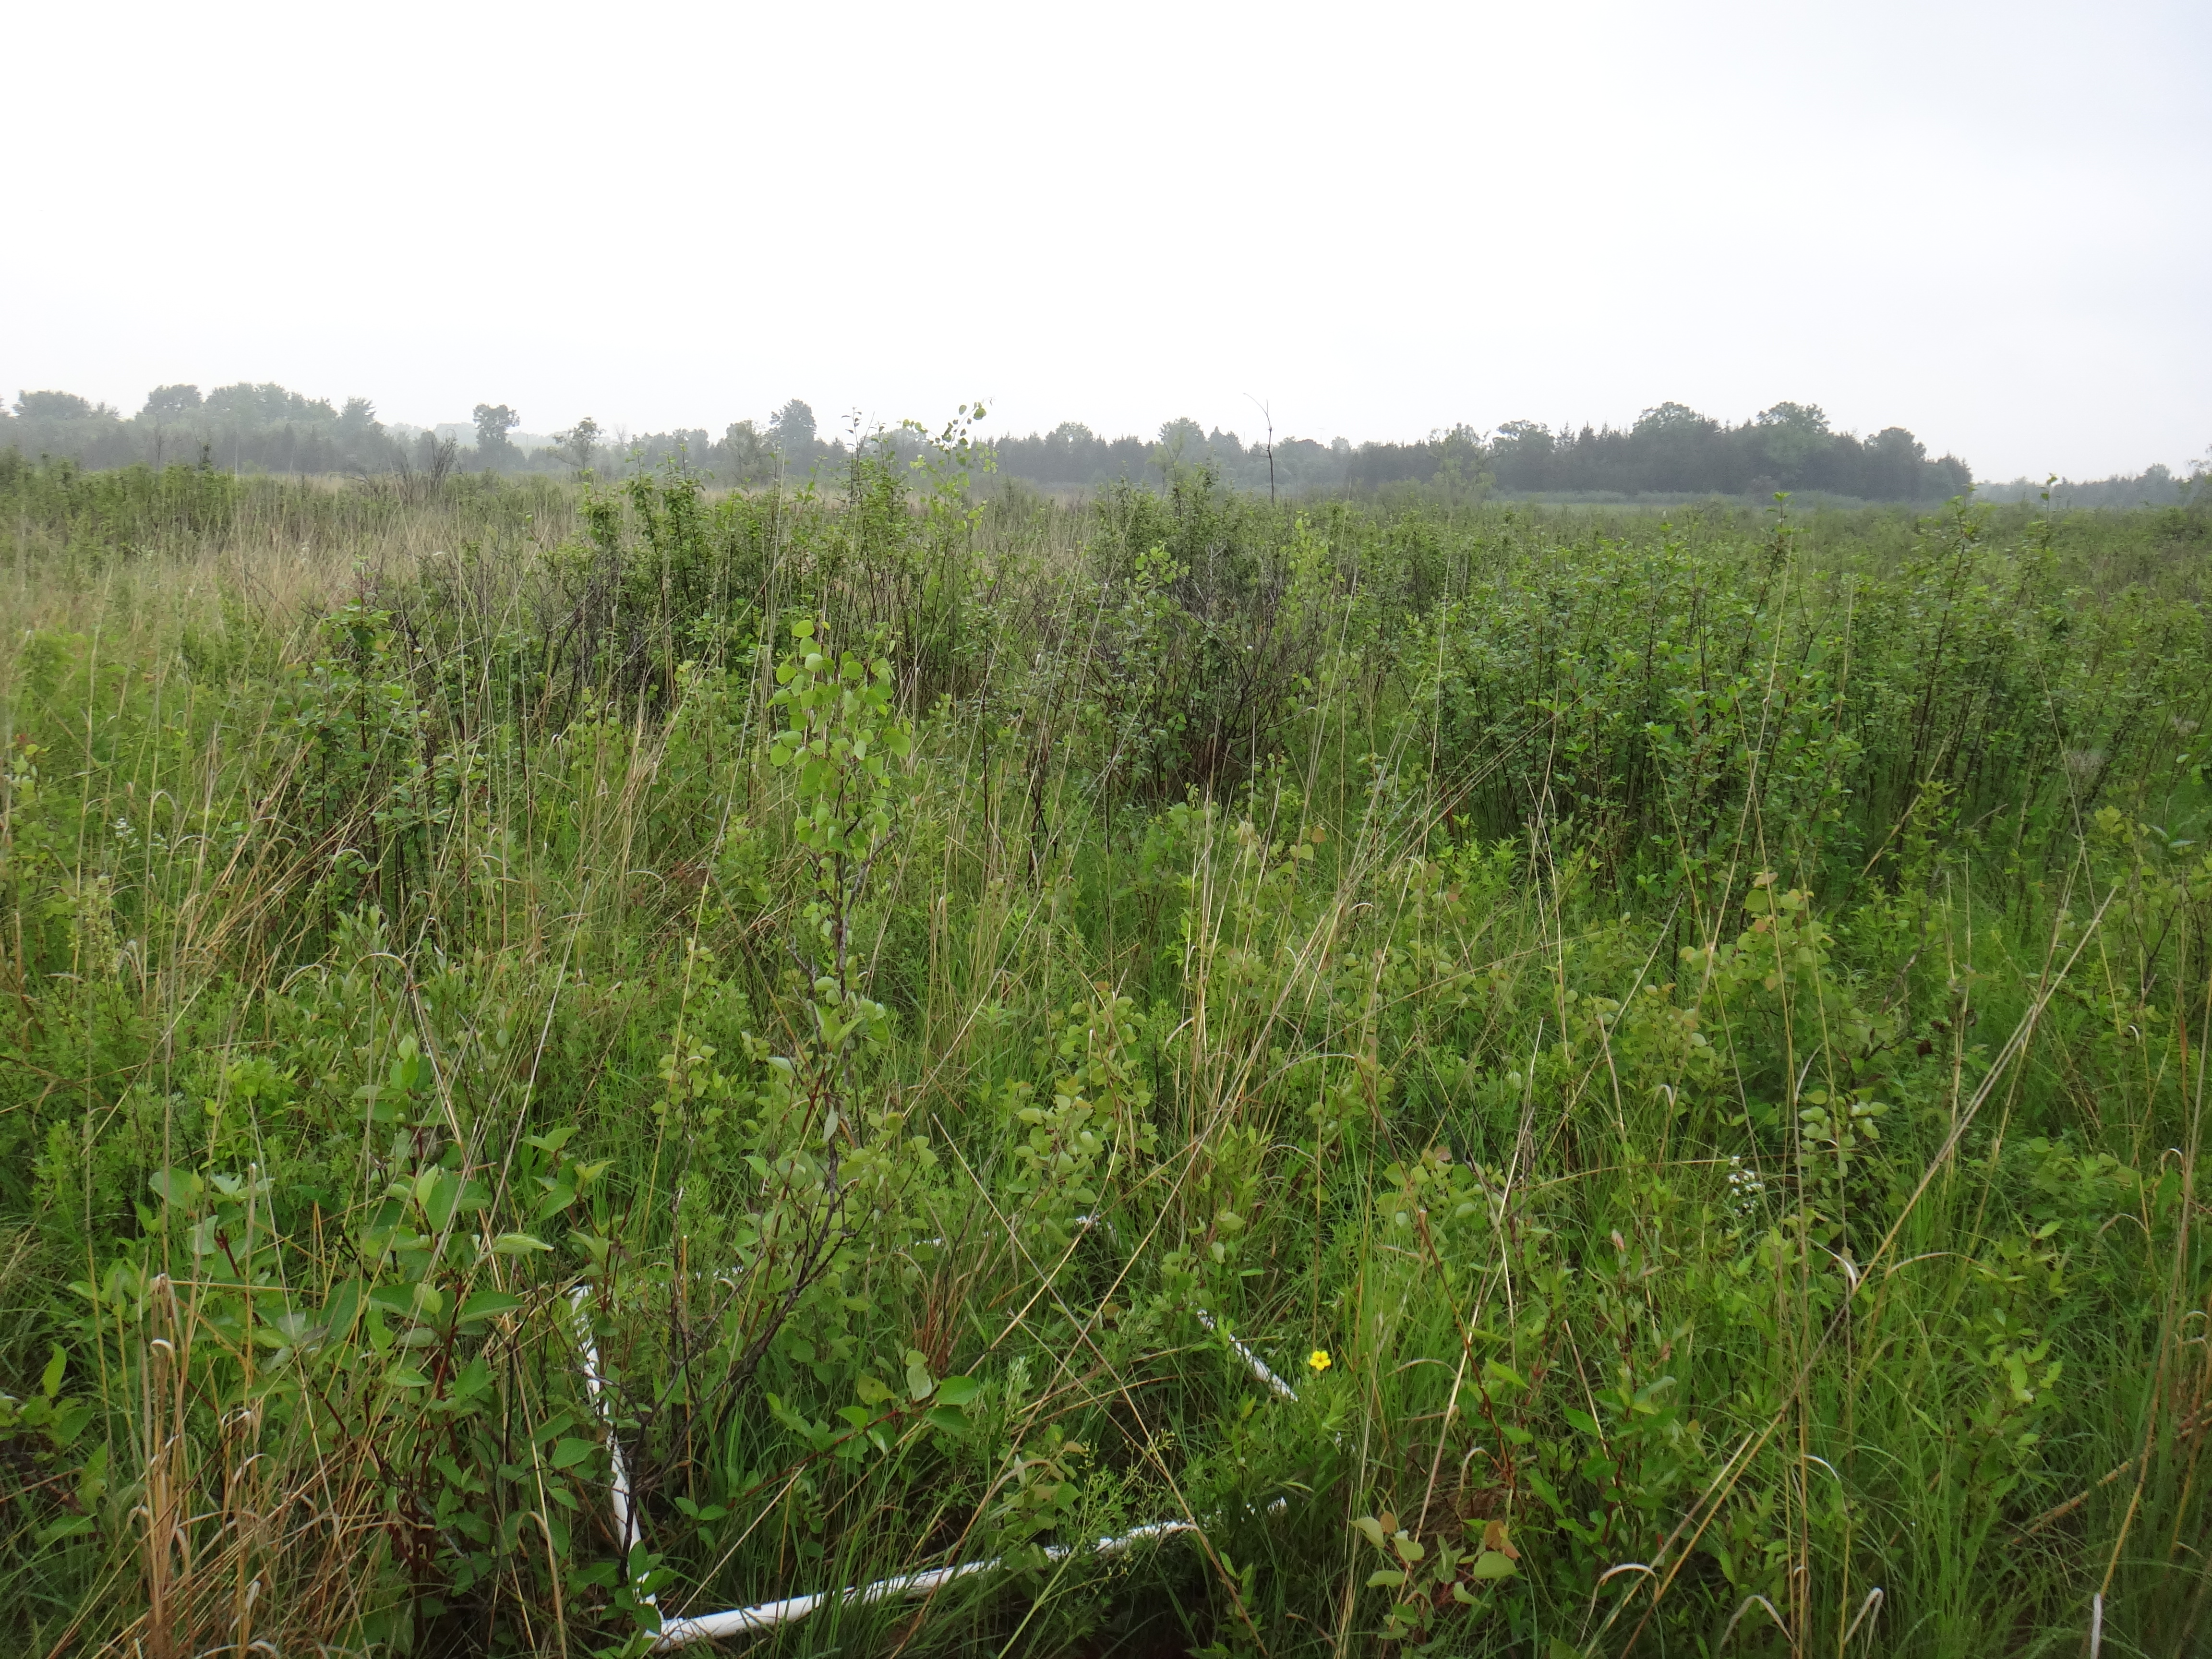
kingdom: Plantae
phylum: Tracheophyta
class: Magnoliopsida
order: Gentianales
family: Rubiaceae
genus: Galium
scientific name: Galium boreale
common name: Northern bedstraw
